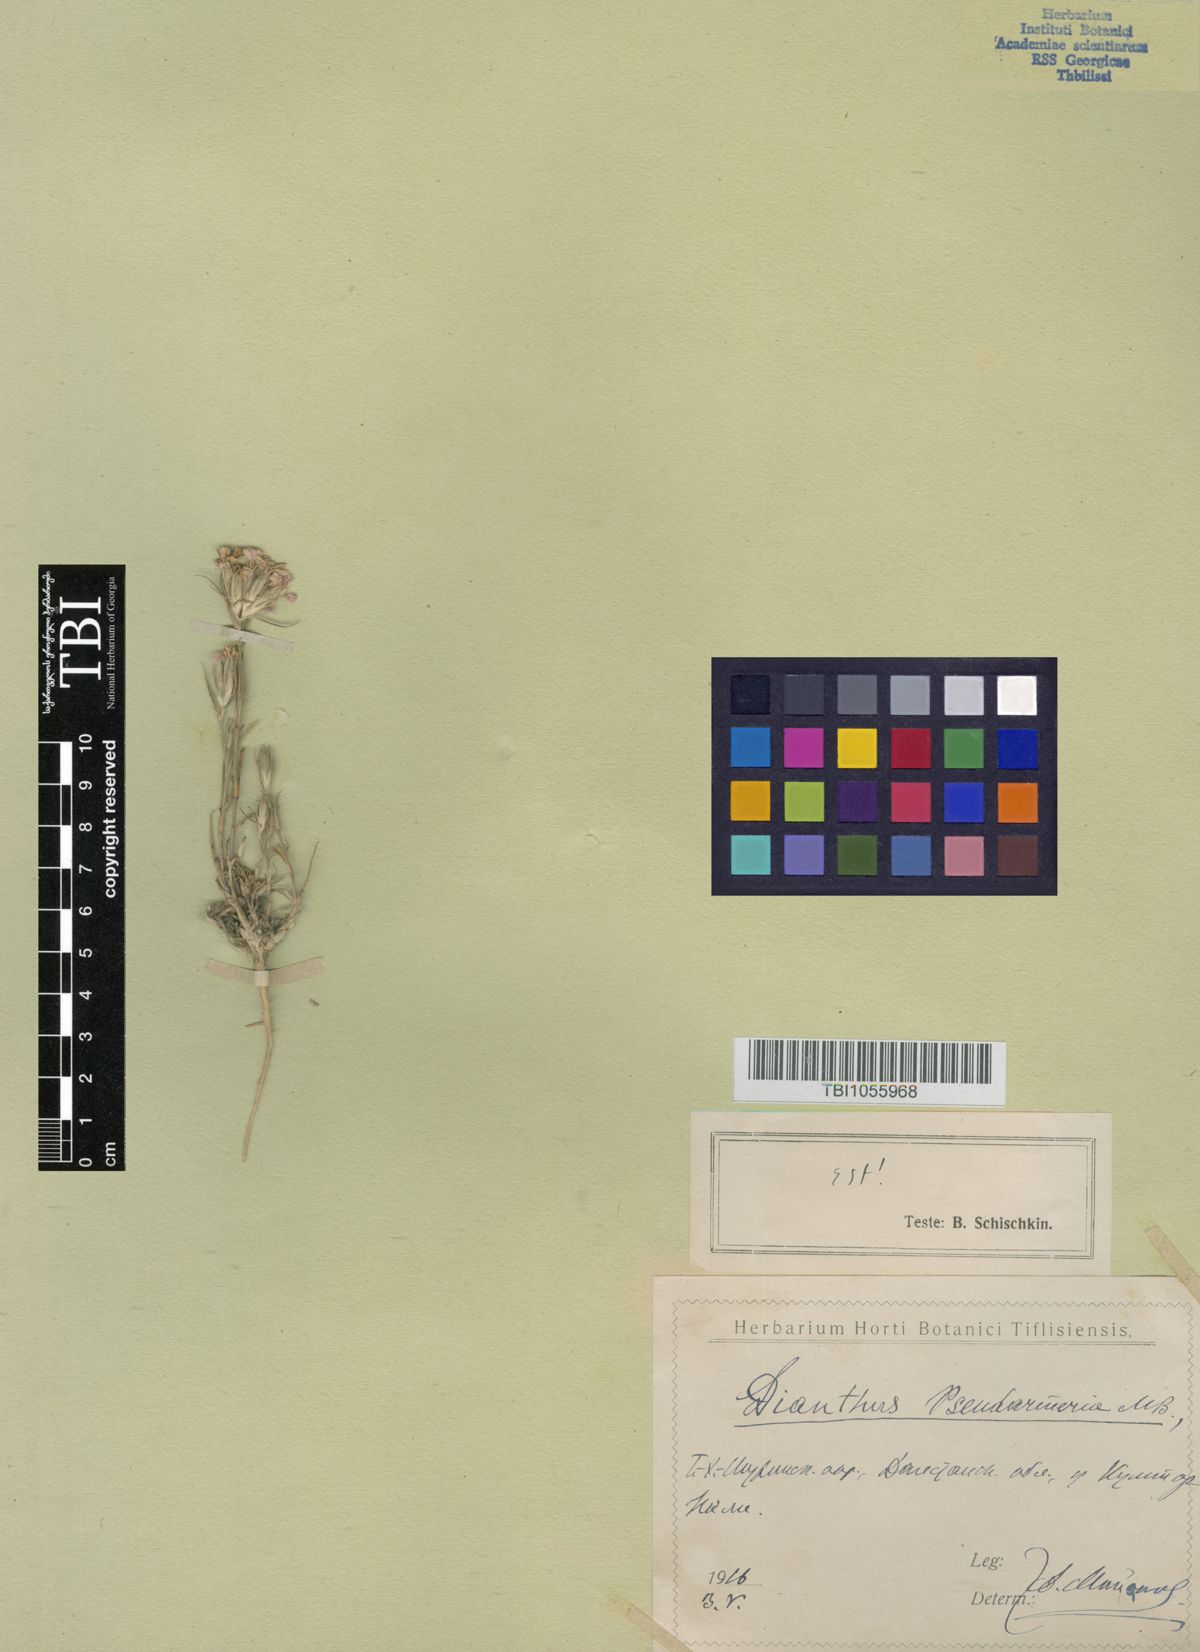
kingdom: Plantae
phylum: Tracheophyta
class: Magnoliopsida
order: Caryophyllales
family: Caryophyllaceae
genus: Dianthus
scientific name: Dianthus pseudarmeria
